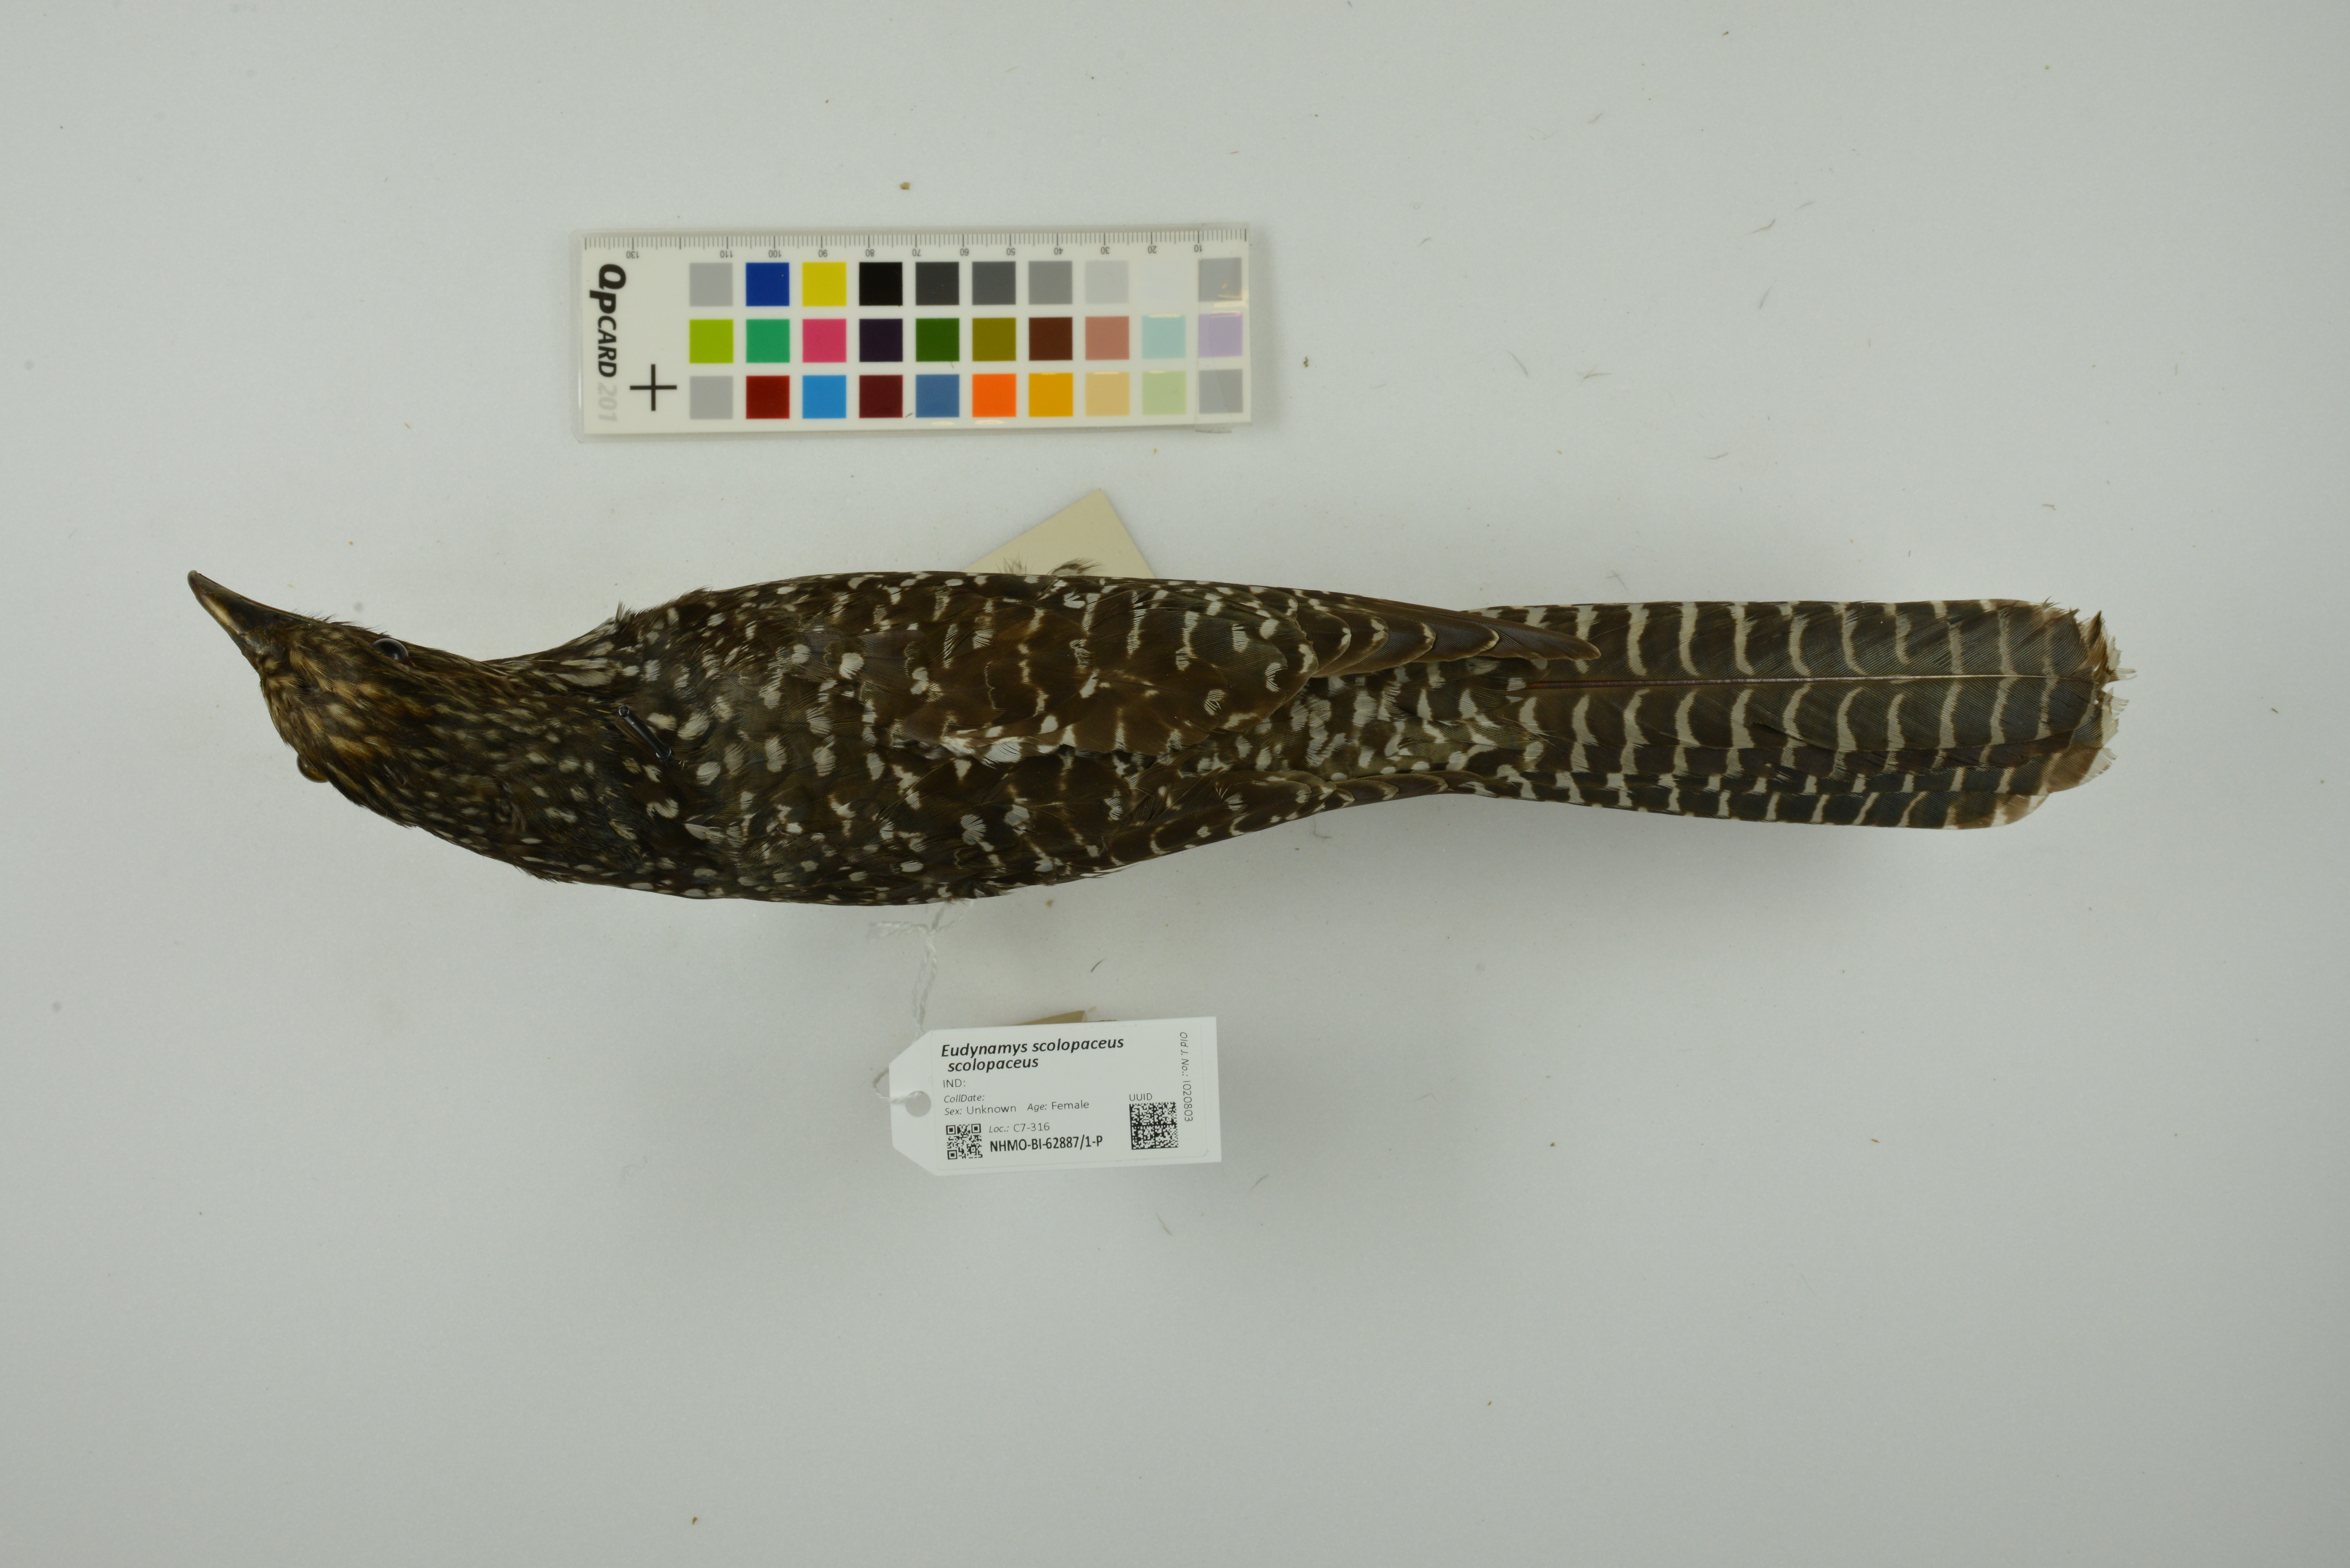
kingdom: Animalia
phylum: Chordata
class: Aves
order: Cuculiformes
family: Cuculidae
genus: Eudynamys
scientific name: Eudynamys scolopaceus
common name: Asian koel
